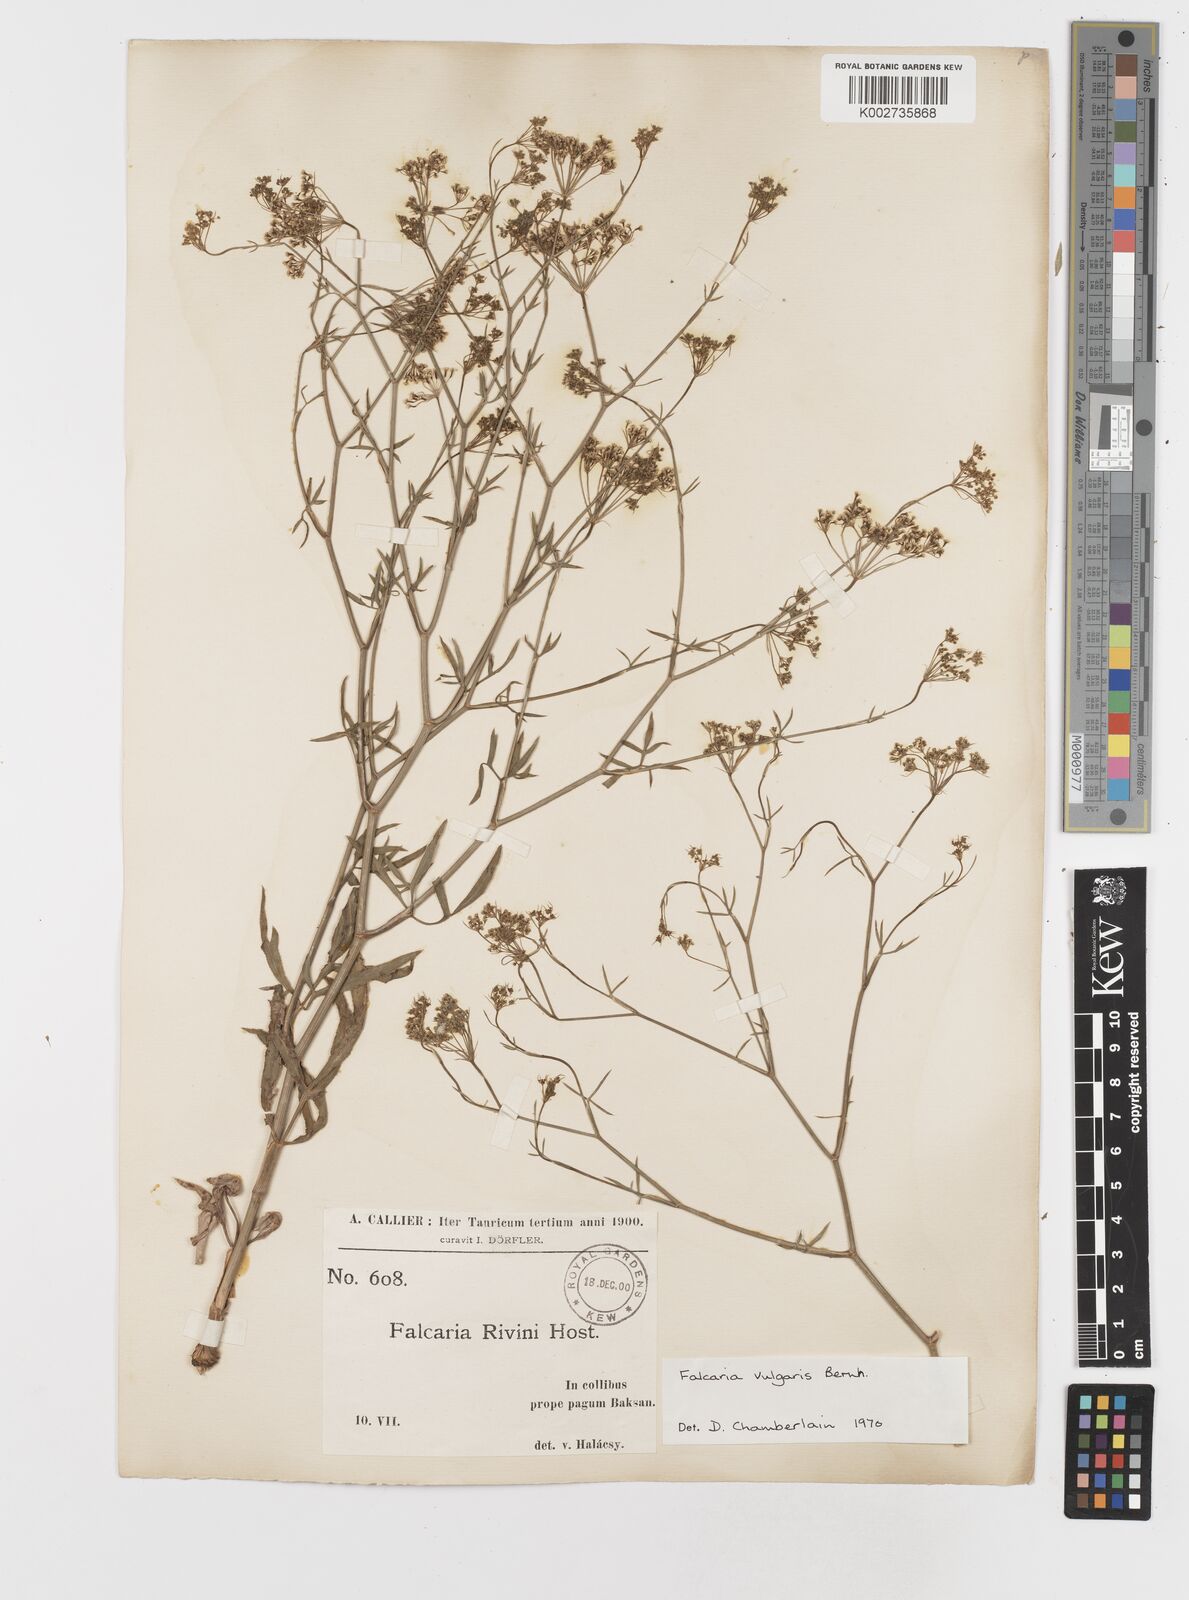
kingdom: Plantae
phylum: Tracheophyta
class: Magnoliopsida
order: Apiales
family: Apiaceae
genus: Falcaria
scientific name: Falcaria vulgaris
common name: Longleaf
